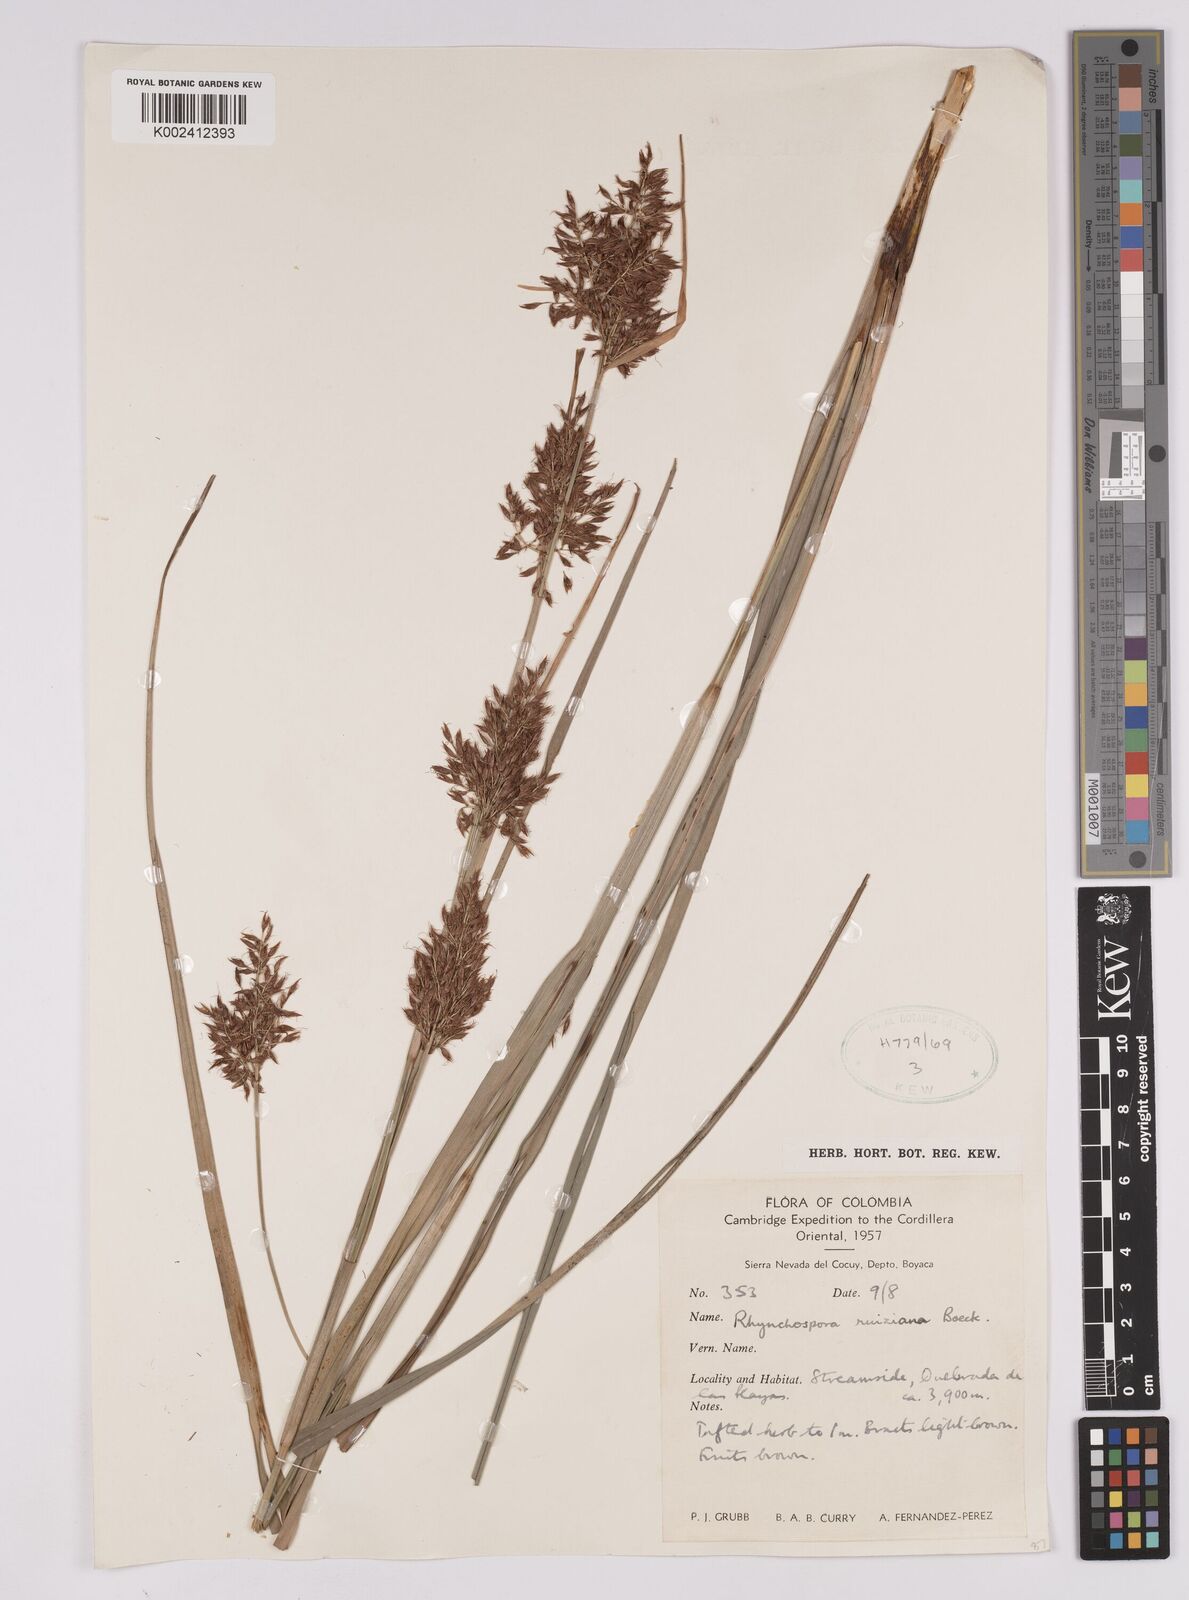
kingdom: Plantae
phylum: Tracheophyta
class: Liliopsida
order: Poales
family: Cyperaceae
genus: Rhynchospora
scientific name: Rhynchospora ruiziana
